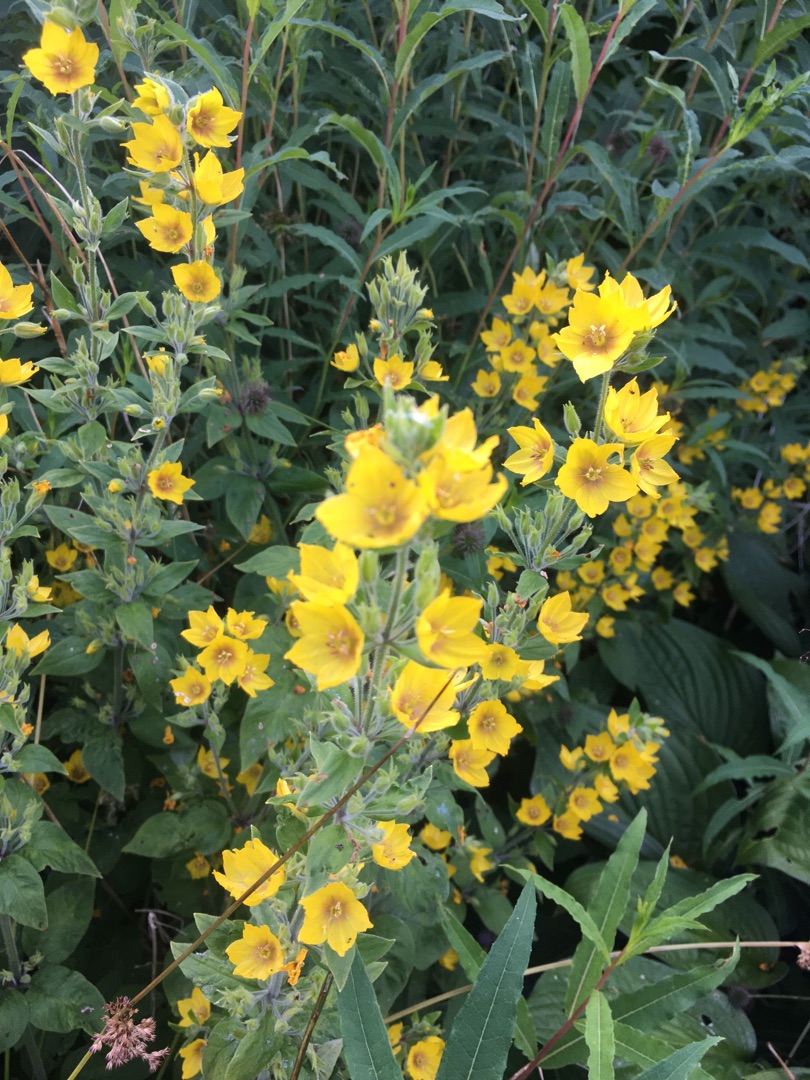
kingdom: Plantae
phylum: Tracheophyta
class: Magnoliopsida
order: Ericales
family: Primulaceae
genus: Lysimachia
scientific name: Lysimachia punctata
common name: Prikbladet fredløs
